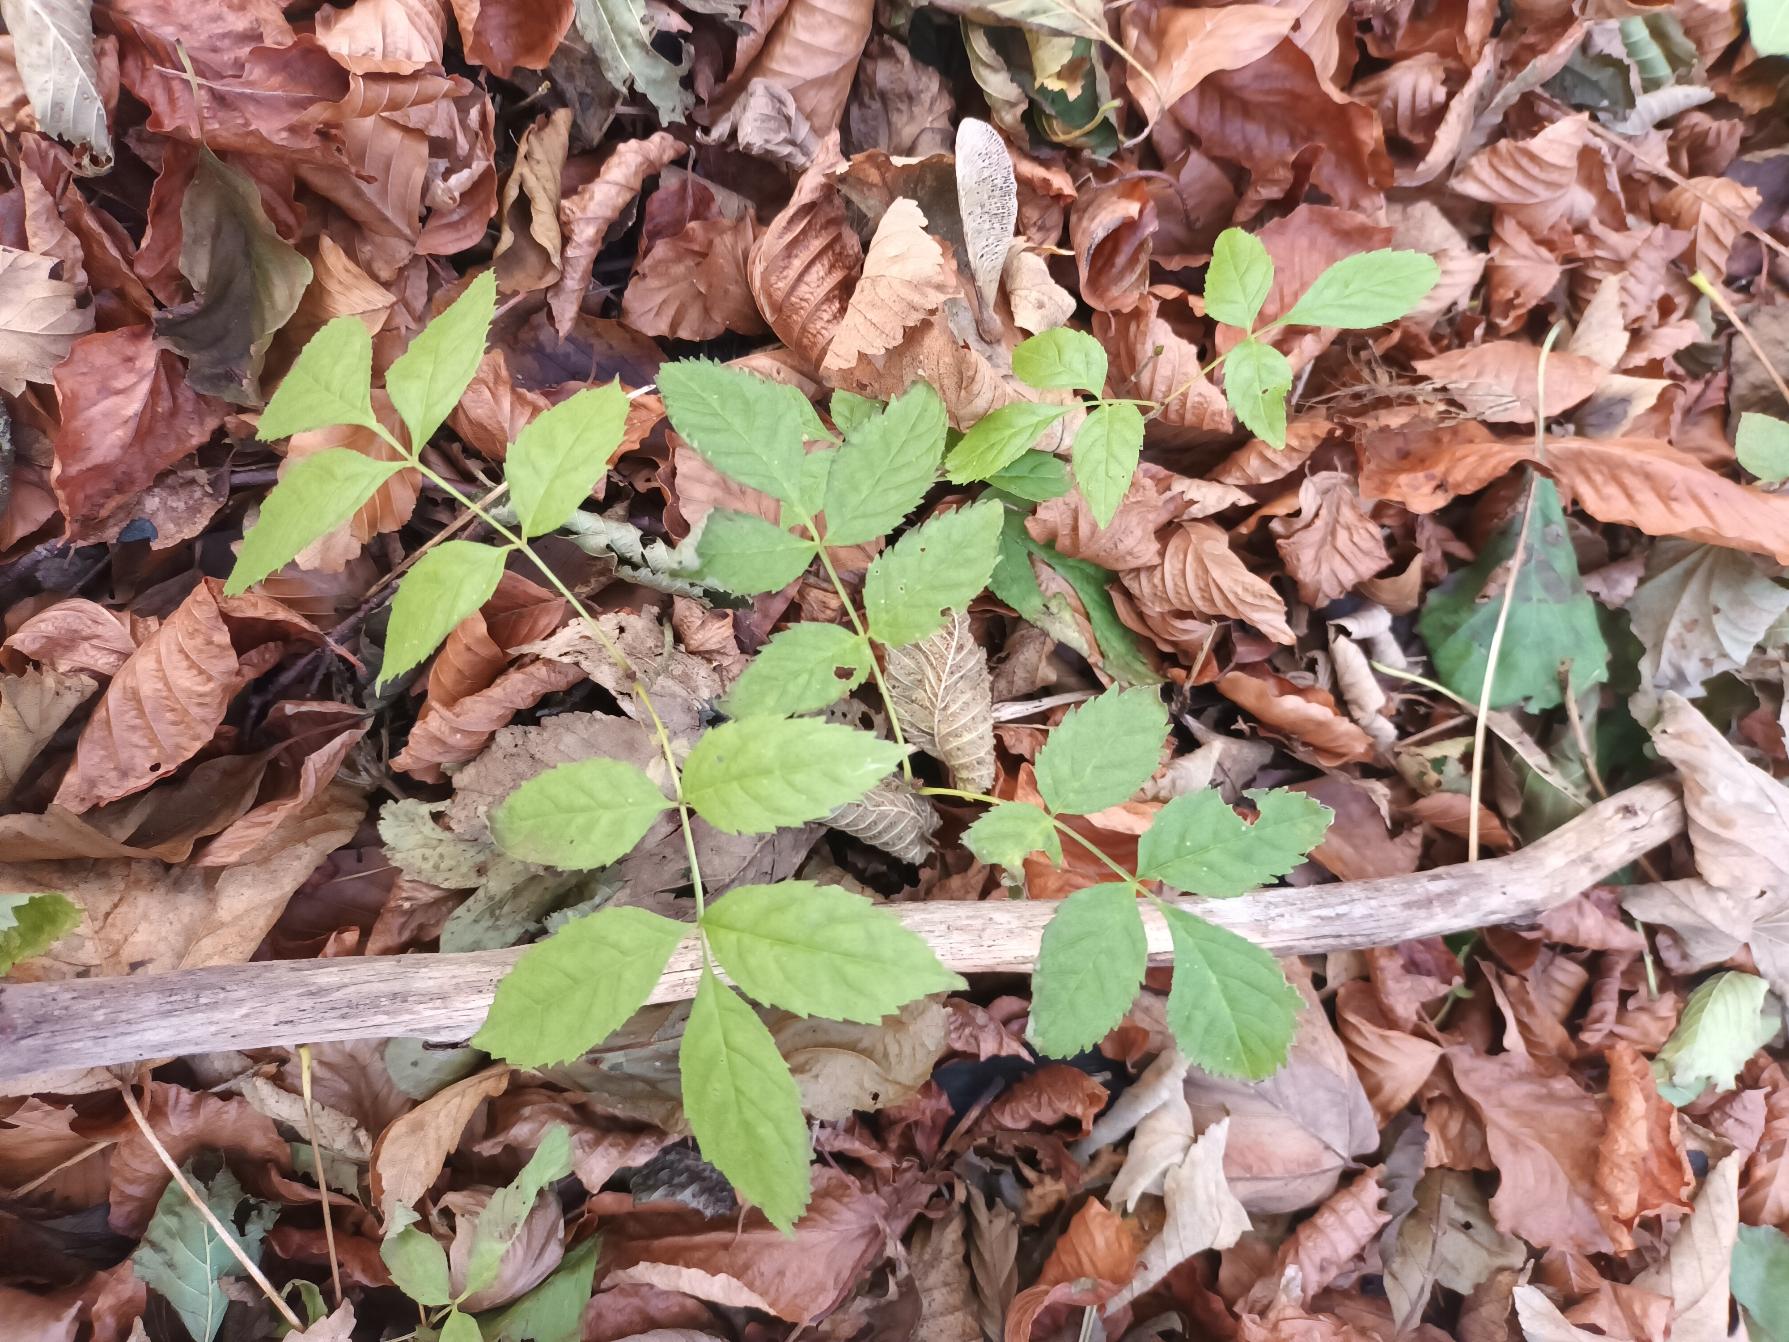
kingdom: Plantae
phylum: Tracheophyta
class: Magnoliopsida
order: Lamiales
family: Oleaceae
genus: Fraxinus
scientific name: Fraxinus excelsior
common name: Ask
